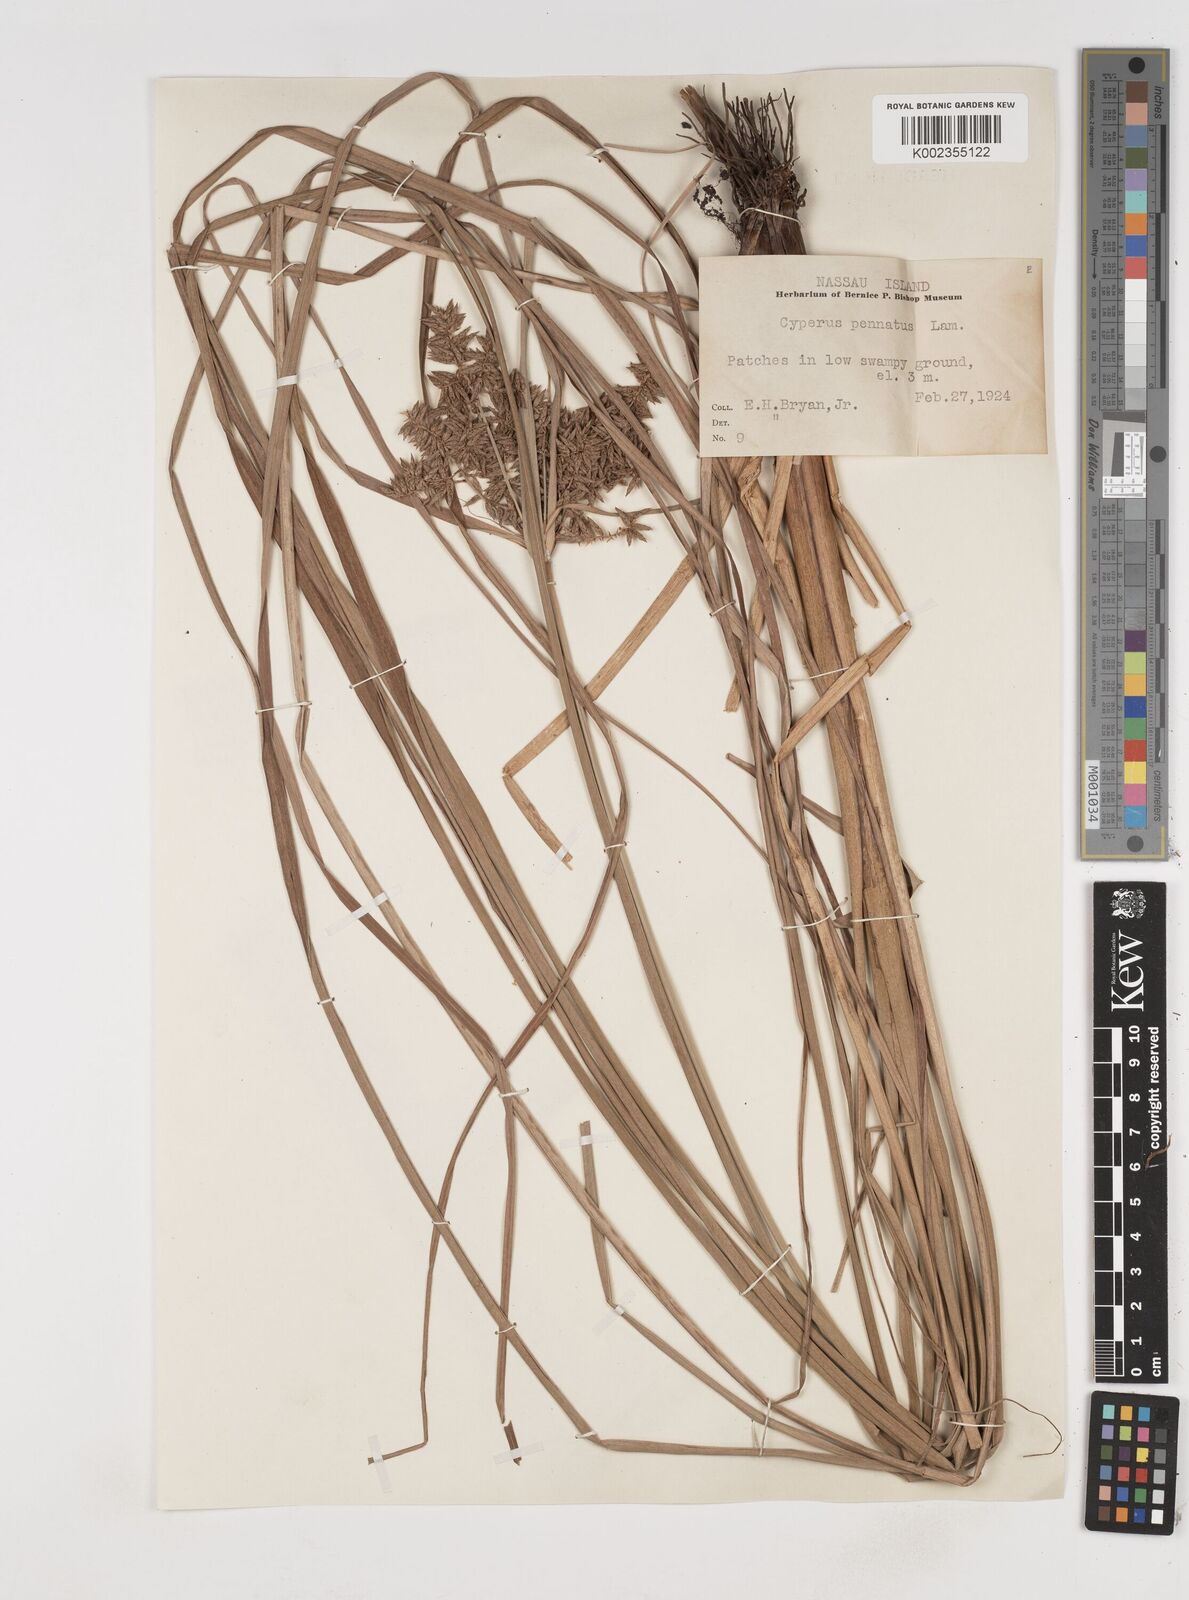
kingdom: Plantae
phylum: Tracheophyta
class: Liliopsida
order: Poales
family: Cyperaceae
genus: Cyperus
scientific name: Cyperus javanicus
